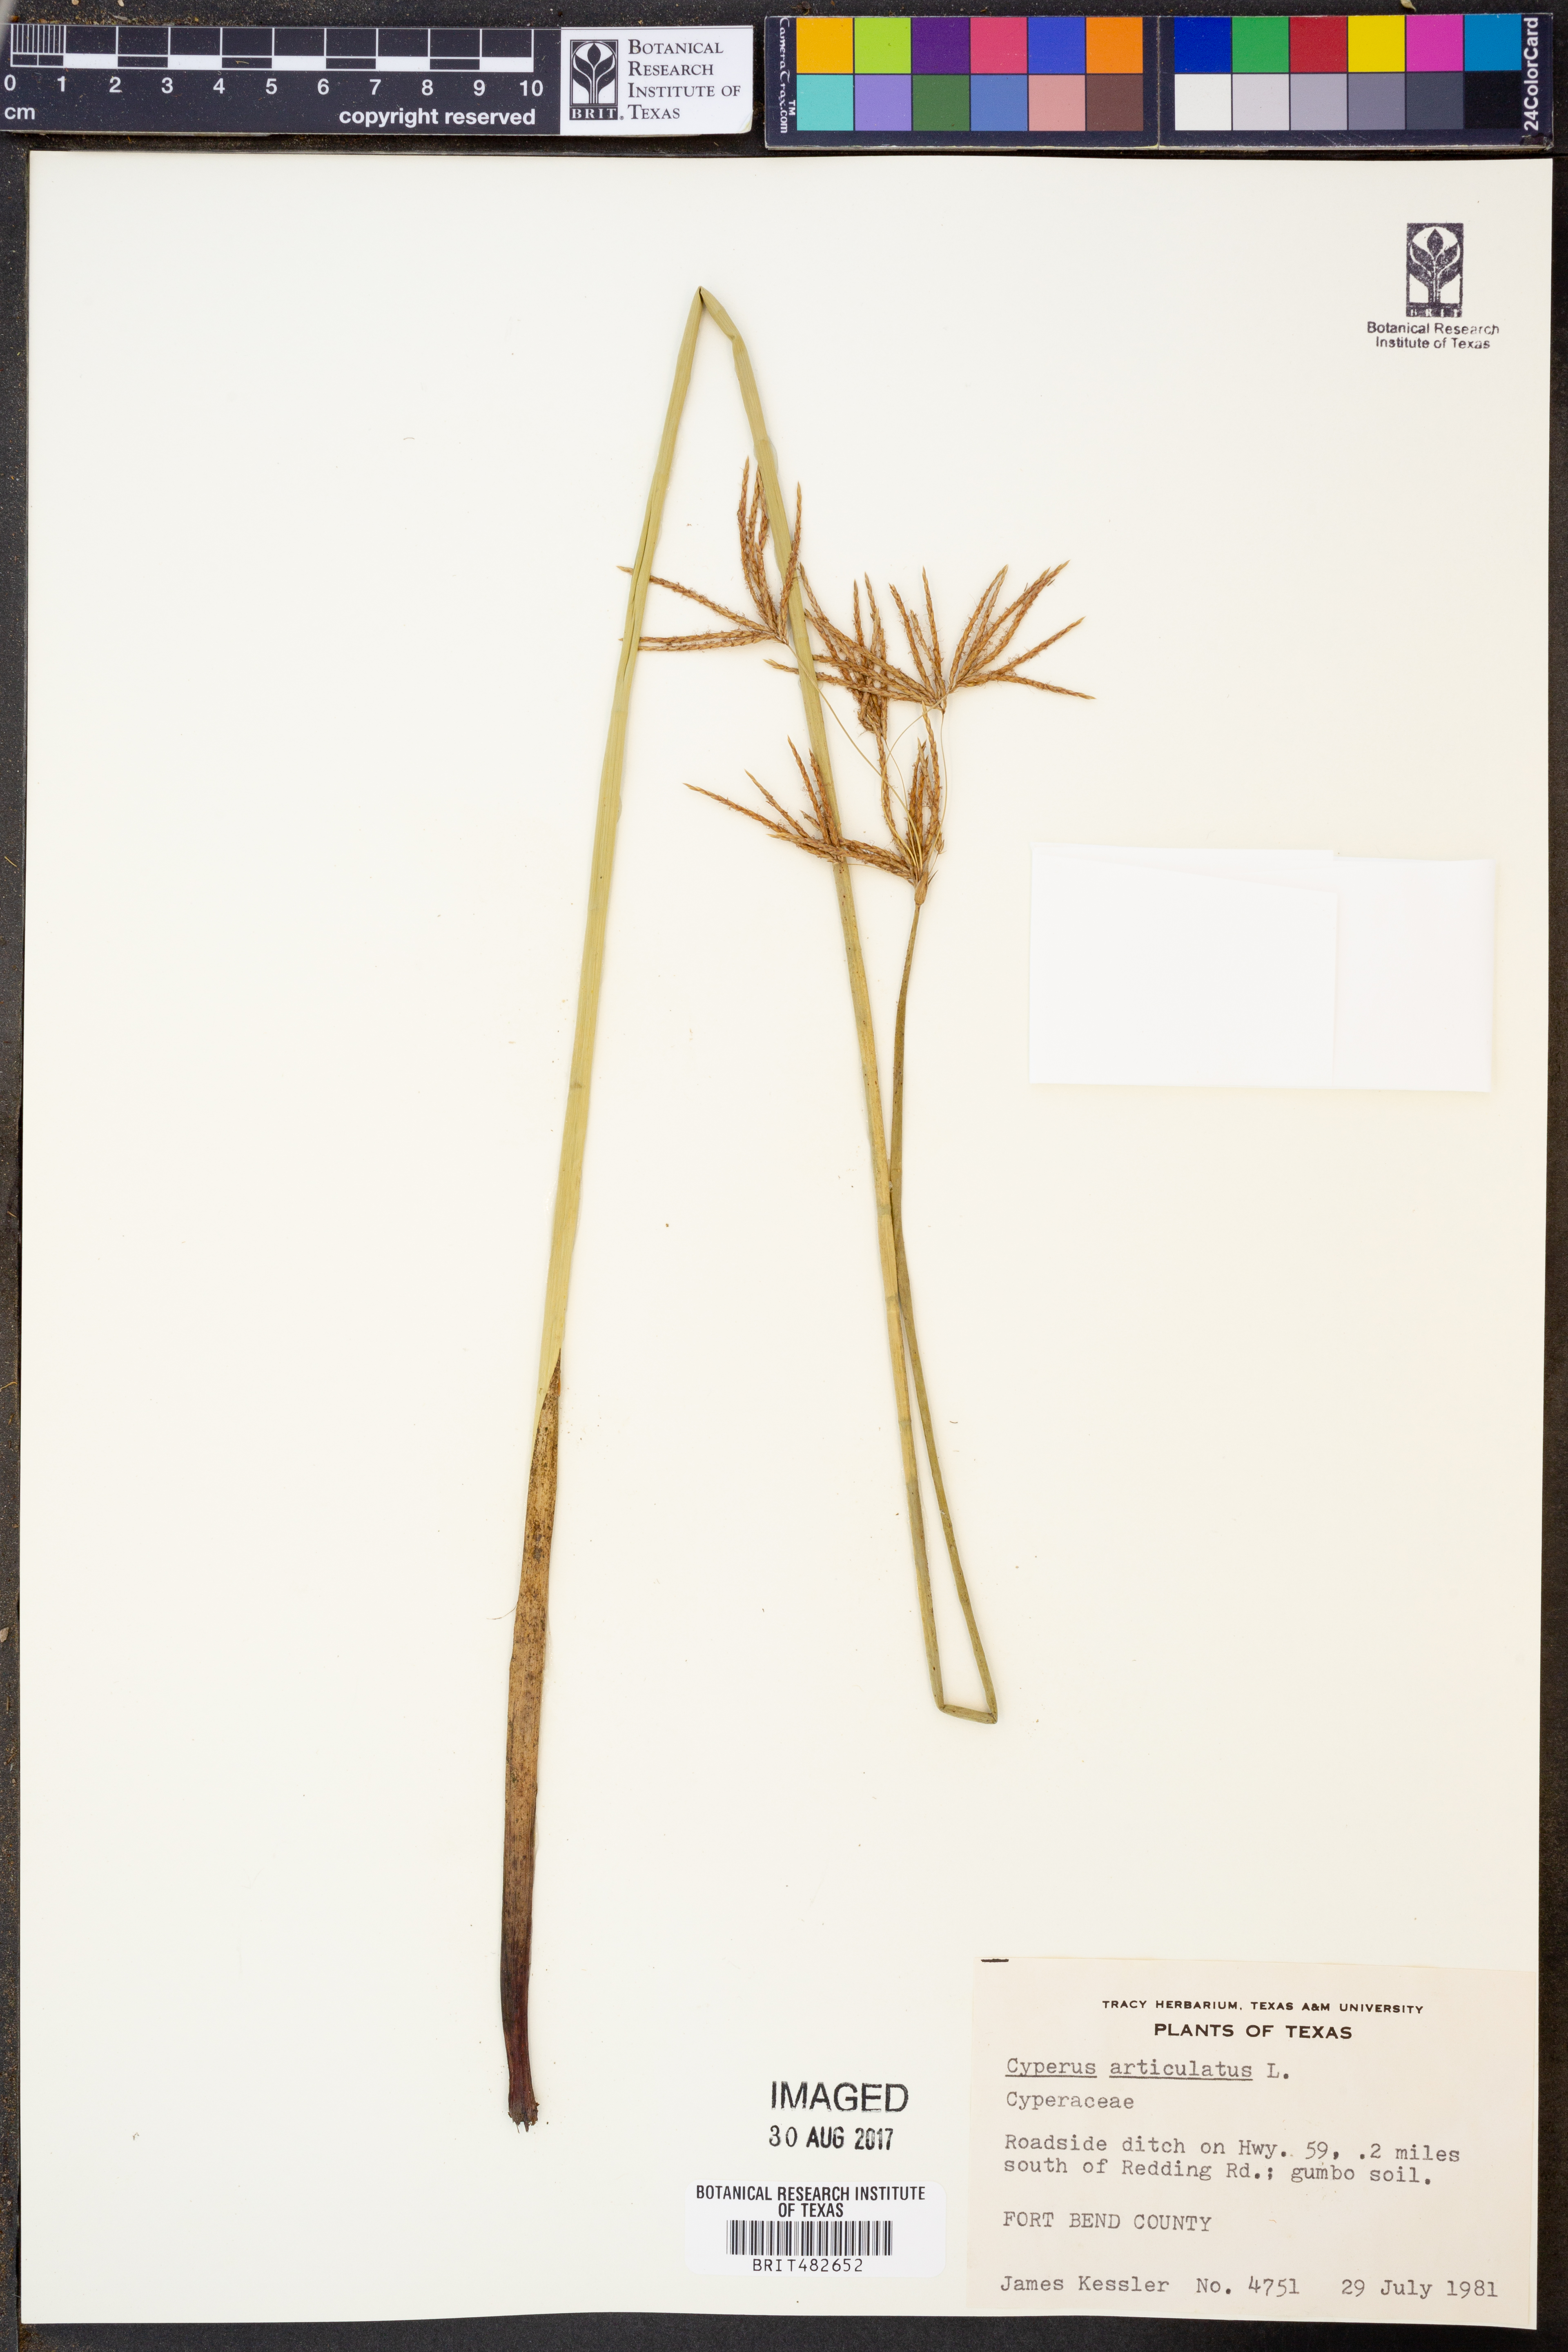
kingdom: Plantae
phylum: Tracheophyta
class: Liliopsida
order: Poales
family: Cyperaceae
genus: Cyperus
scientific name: Cyperus articulatus
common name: Jointed flatsedge
